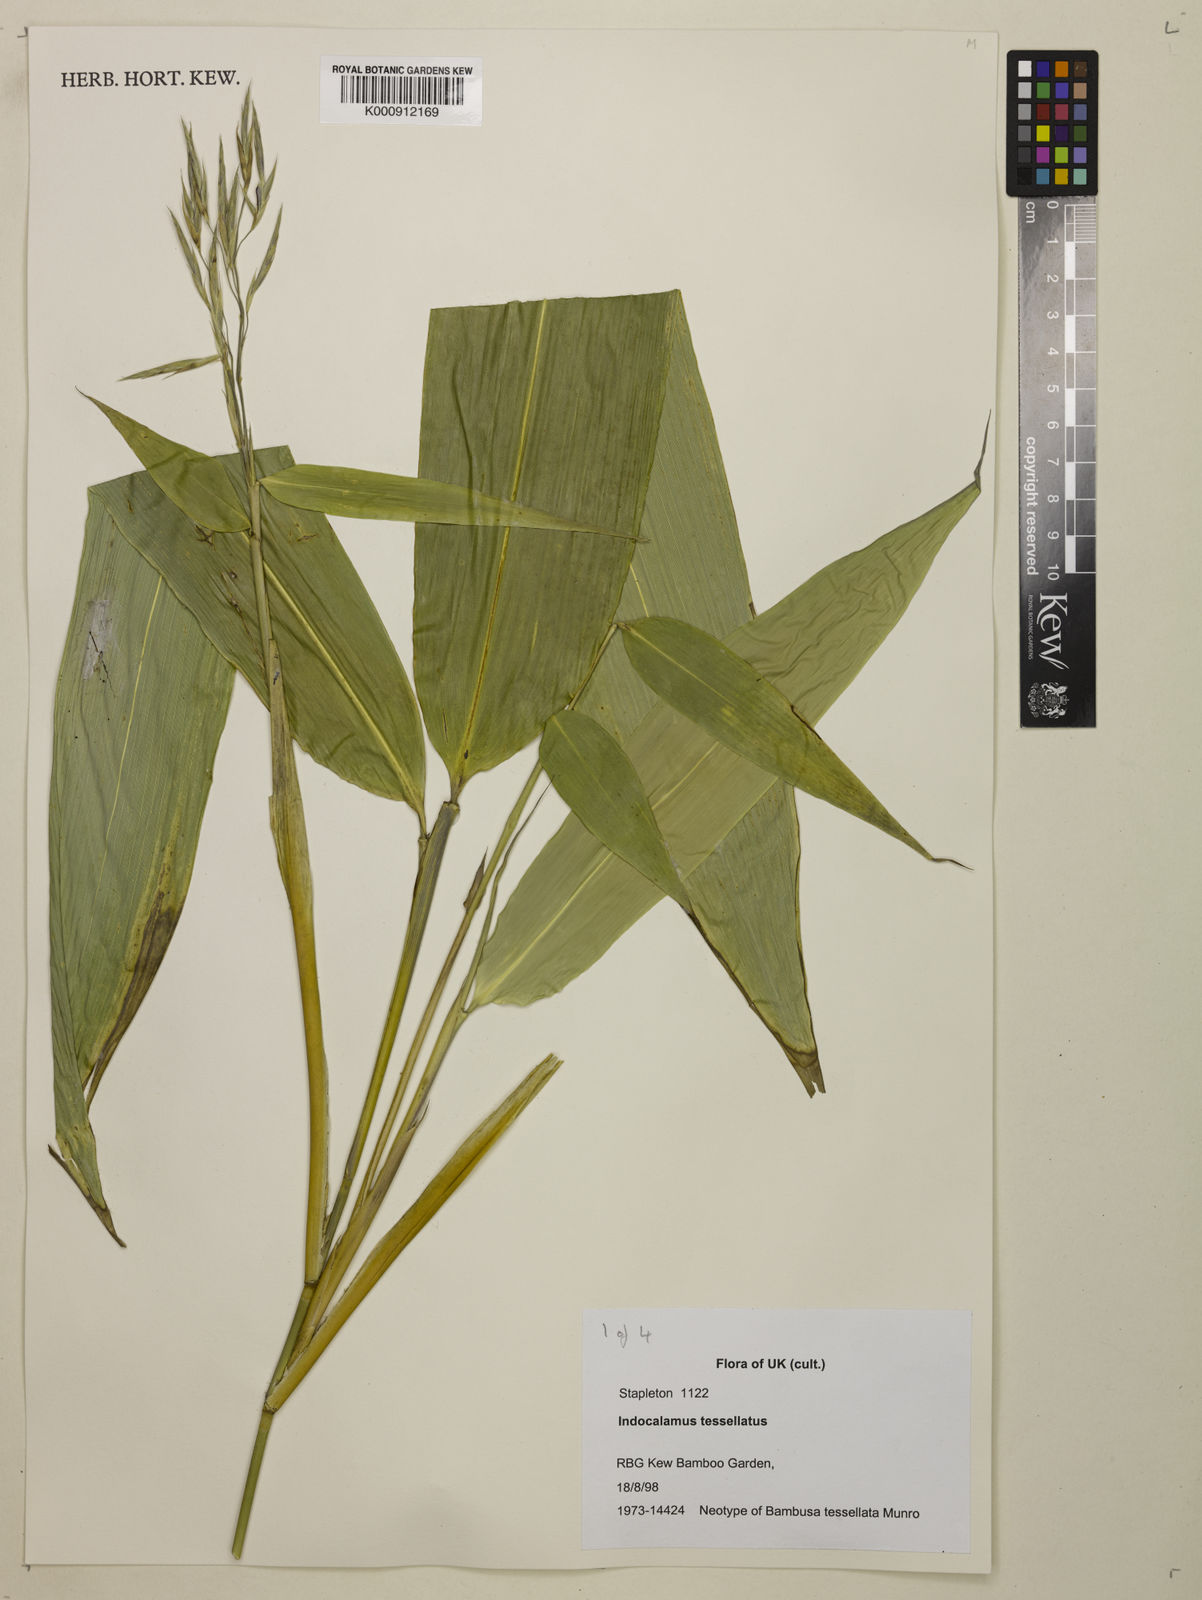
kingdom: Plantae
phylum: Tracheophyta
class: Liliopsida
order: Poales
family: Poaceae
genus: Indocalamus
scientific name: Indocalamus tessellatus
